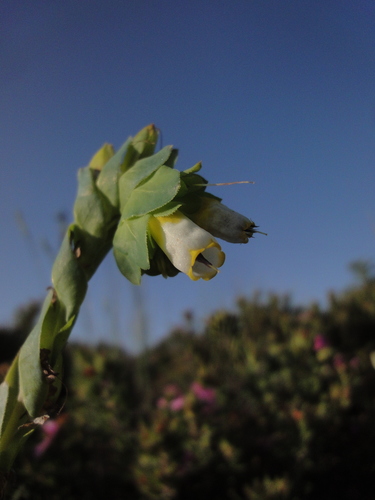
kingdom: Plantae
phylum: Tracheophyta
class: Magnoliopsida
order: Boraginales
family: Boraginaceae
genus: Cerinthe
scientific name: Cerinthe major
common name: Greater honeywort
